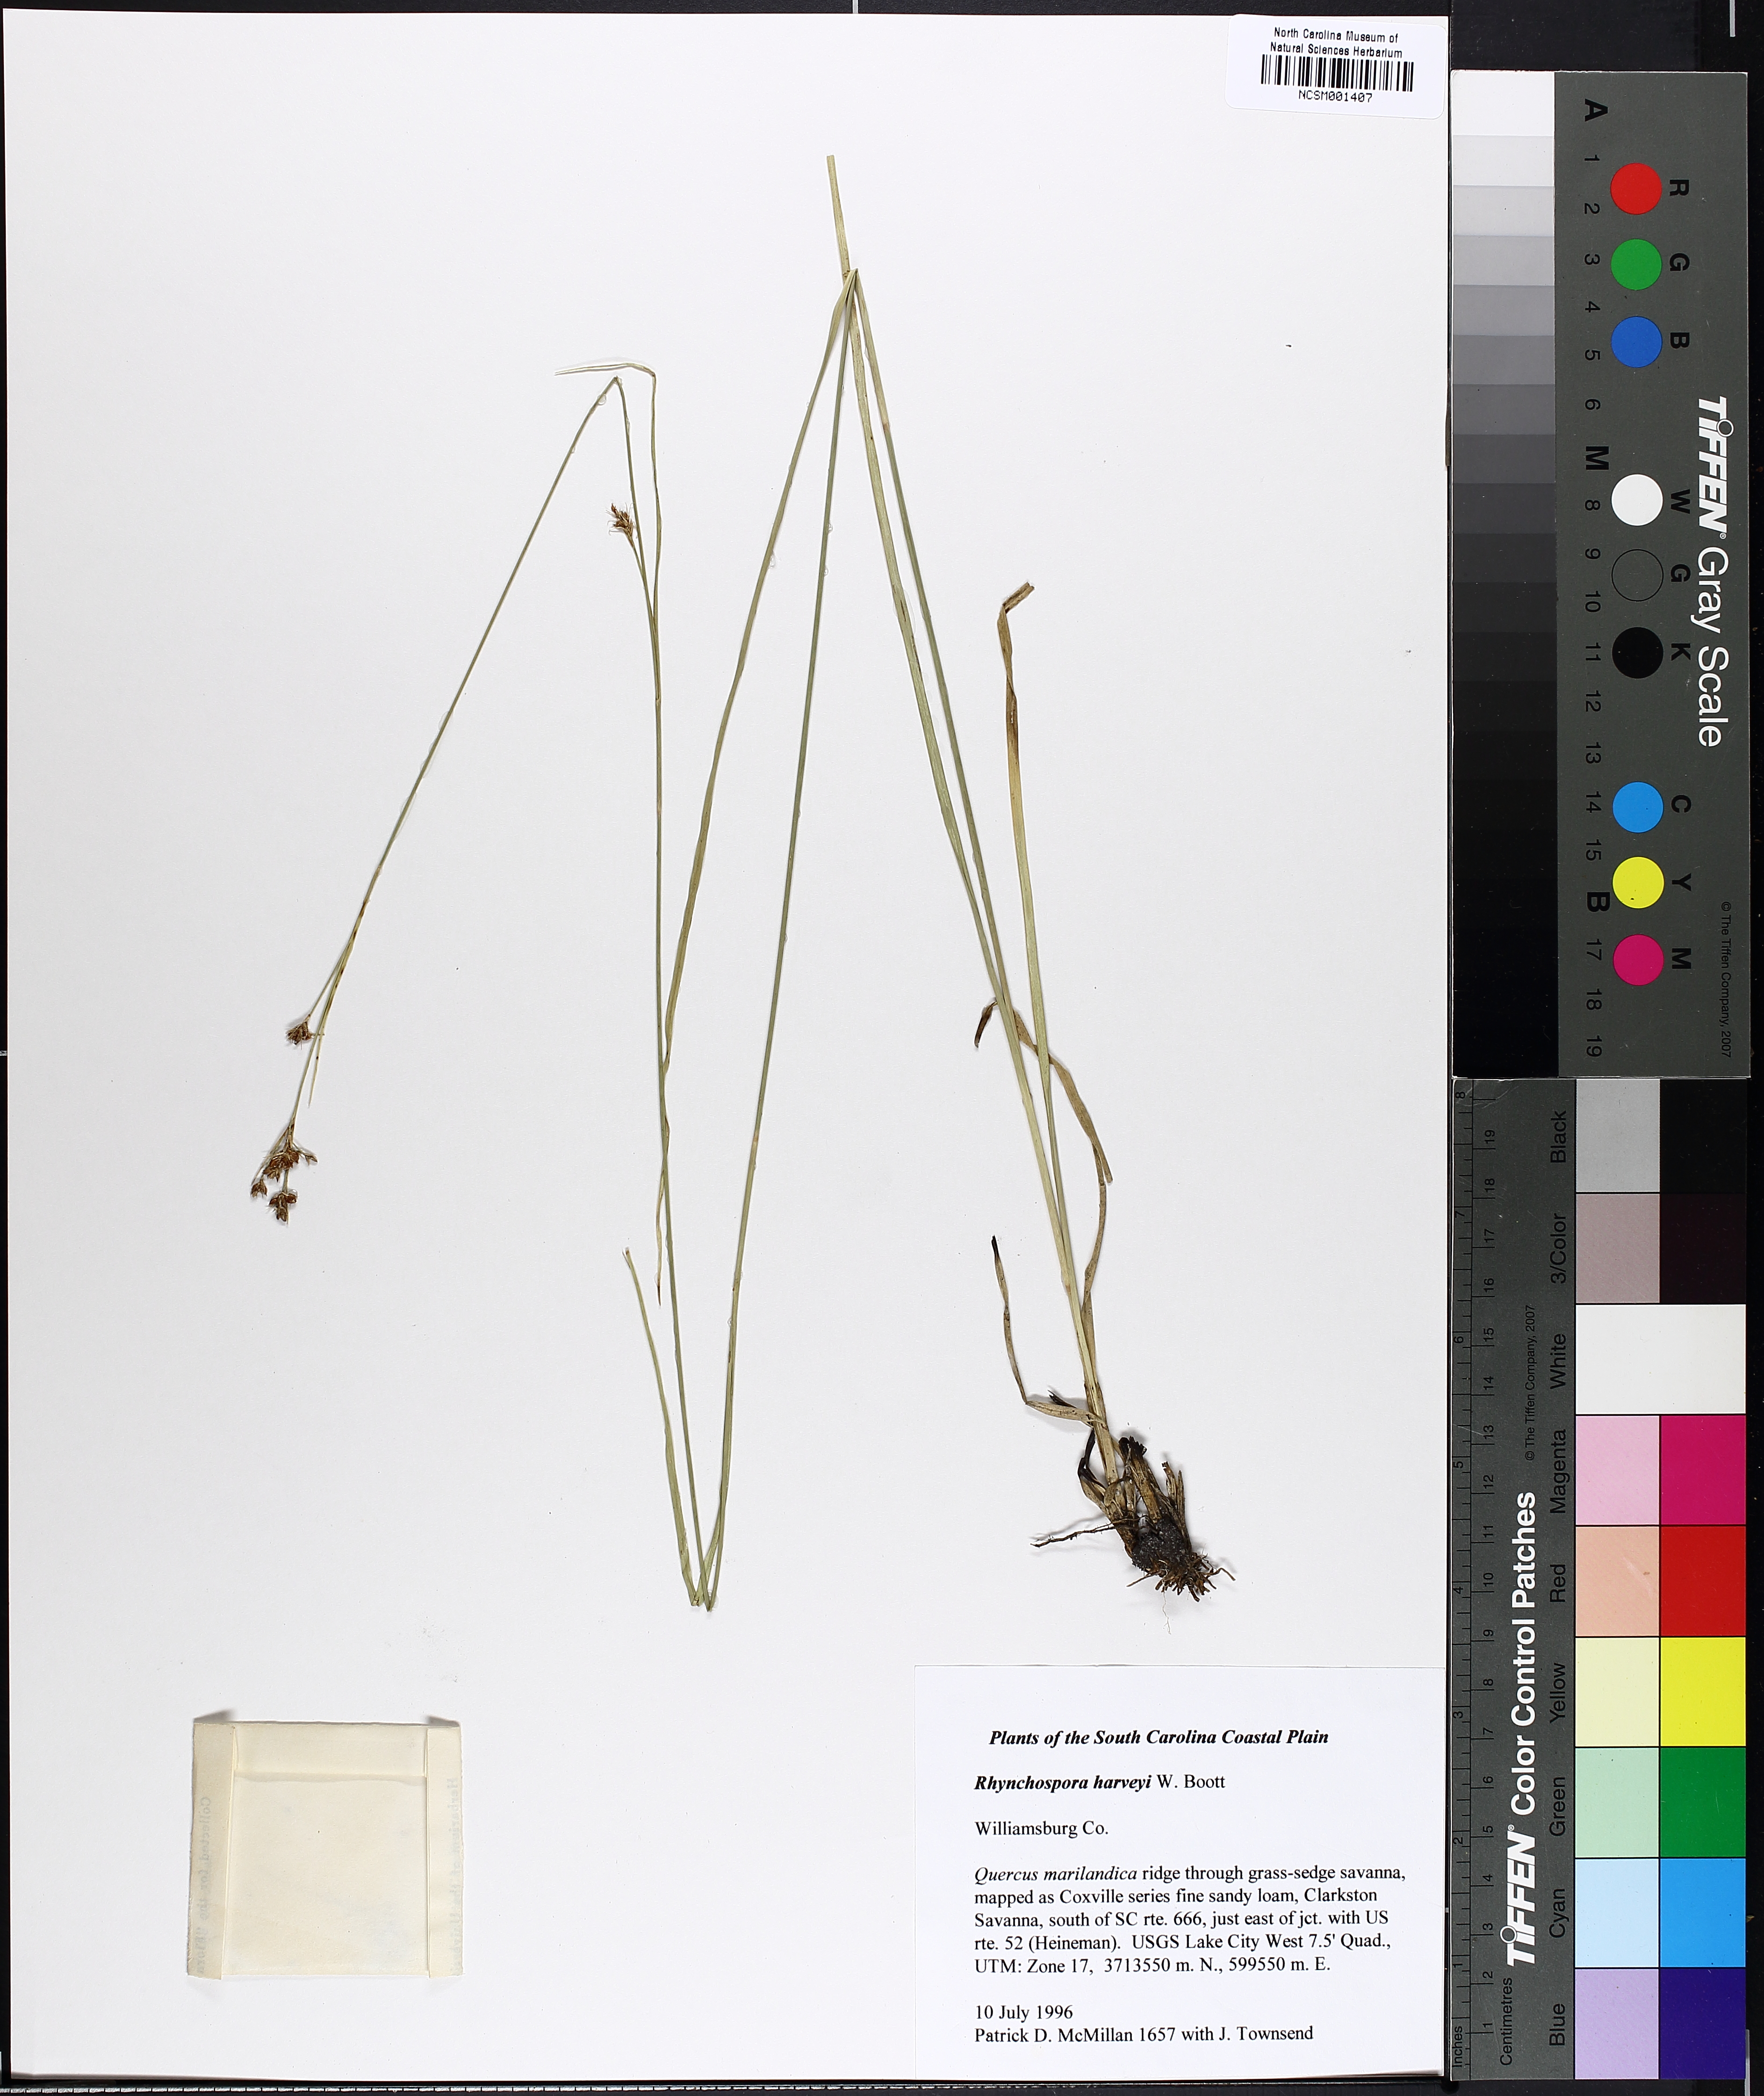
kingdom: Plantae
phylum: Tracheophyta
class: Liliopsida
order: Poales
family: Cyperaceae
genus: Rhynchospora
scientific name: Rhynchospora harveyi
